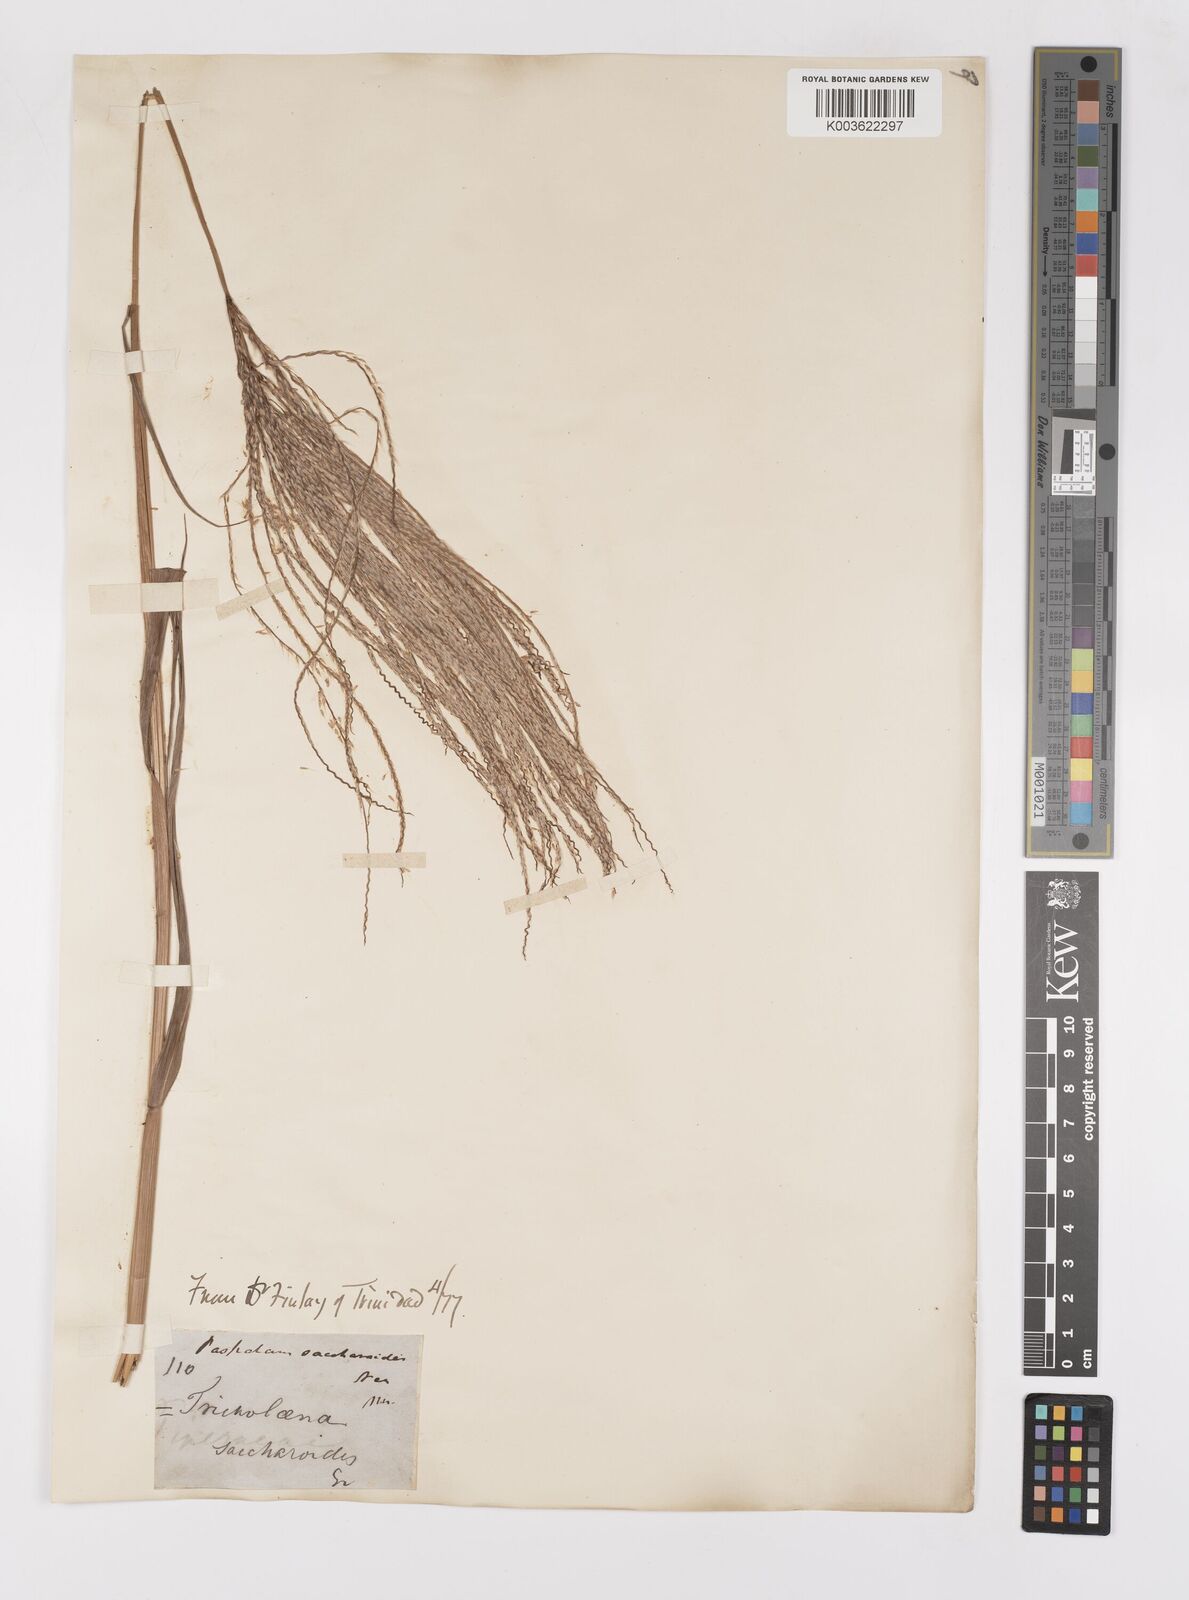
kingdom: Plantae
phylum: Tracheophyta
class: Liliopsida
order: Poales
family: Poaceae
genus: Paspalum
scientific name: Paspalum saccharoides
